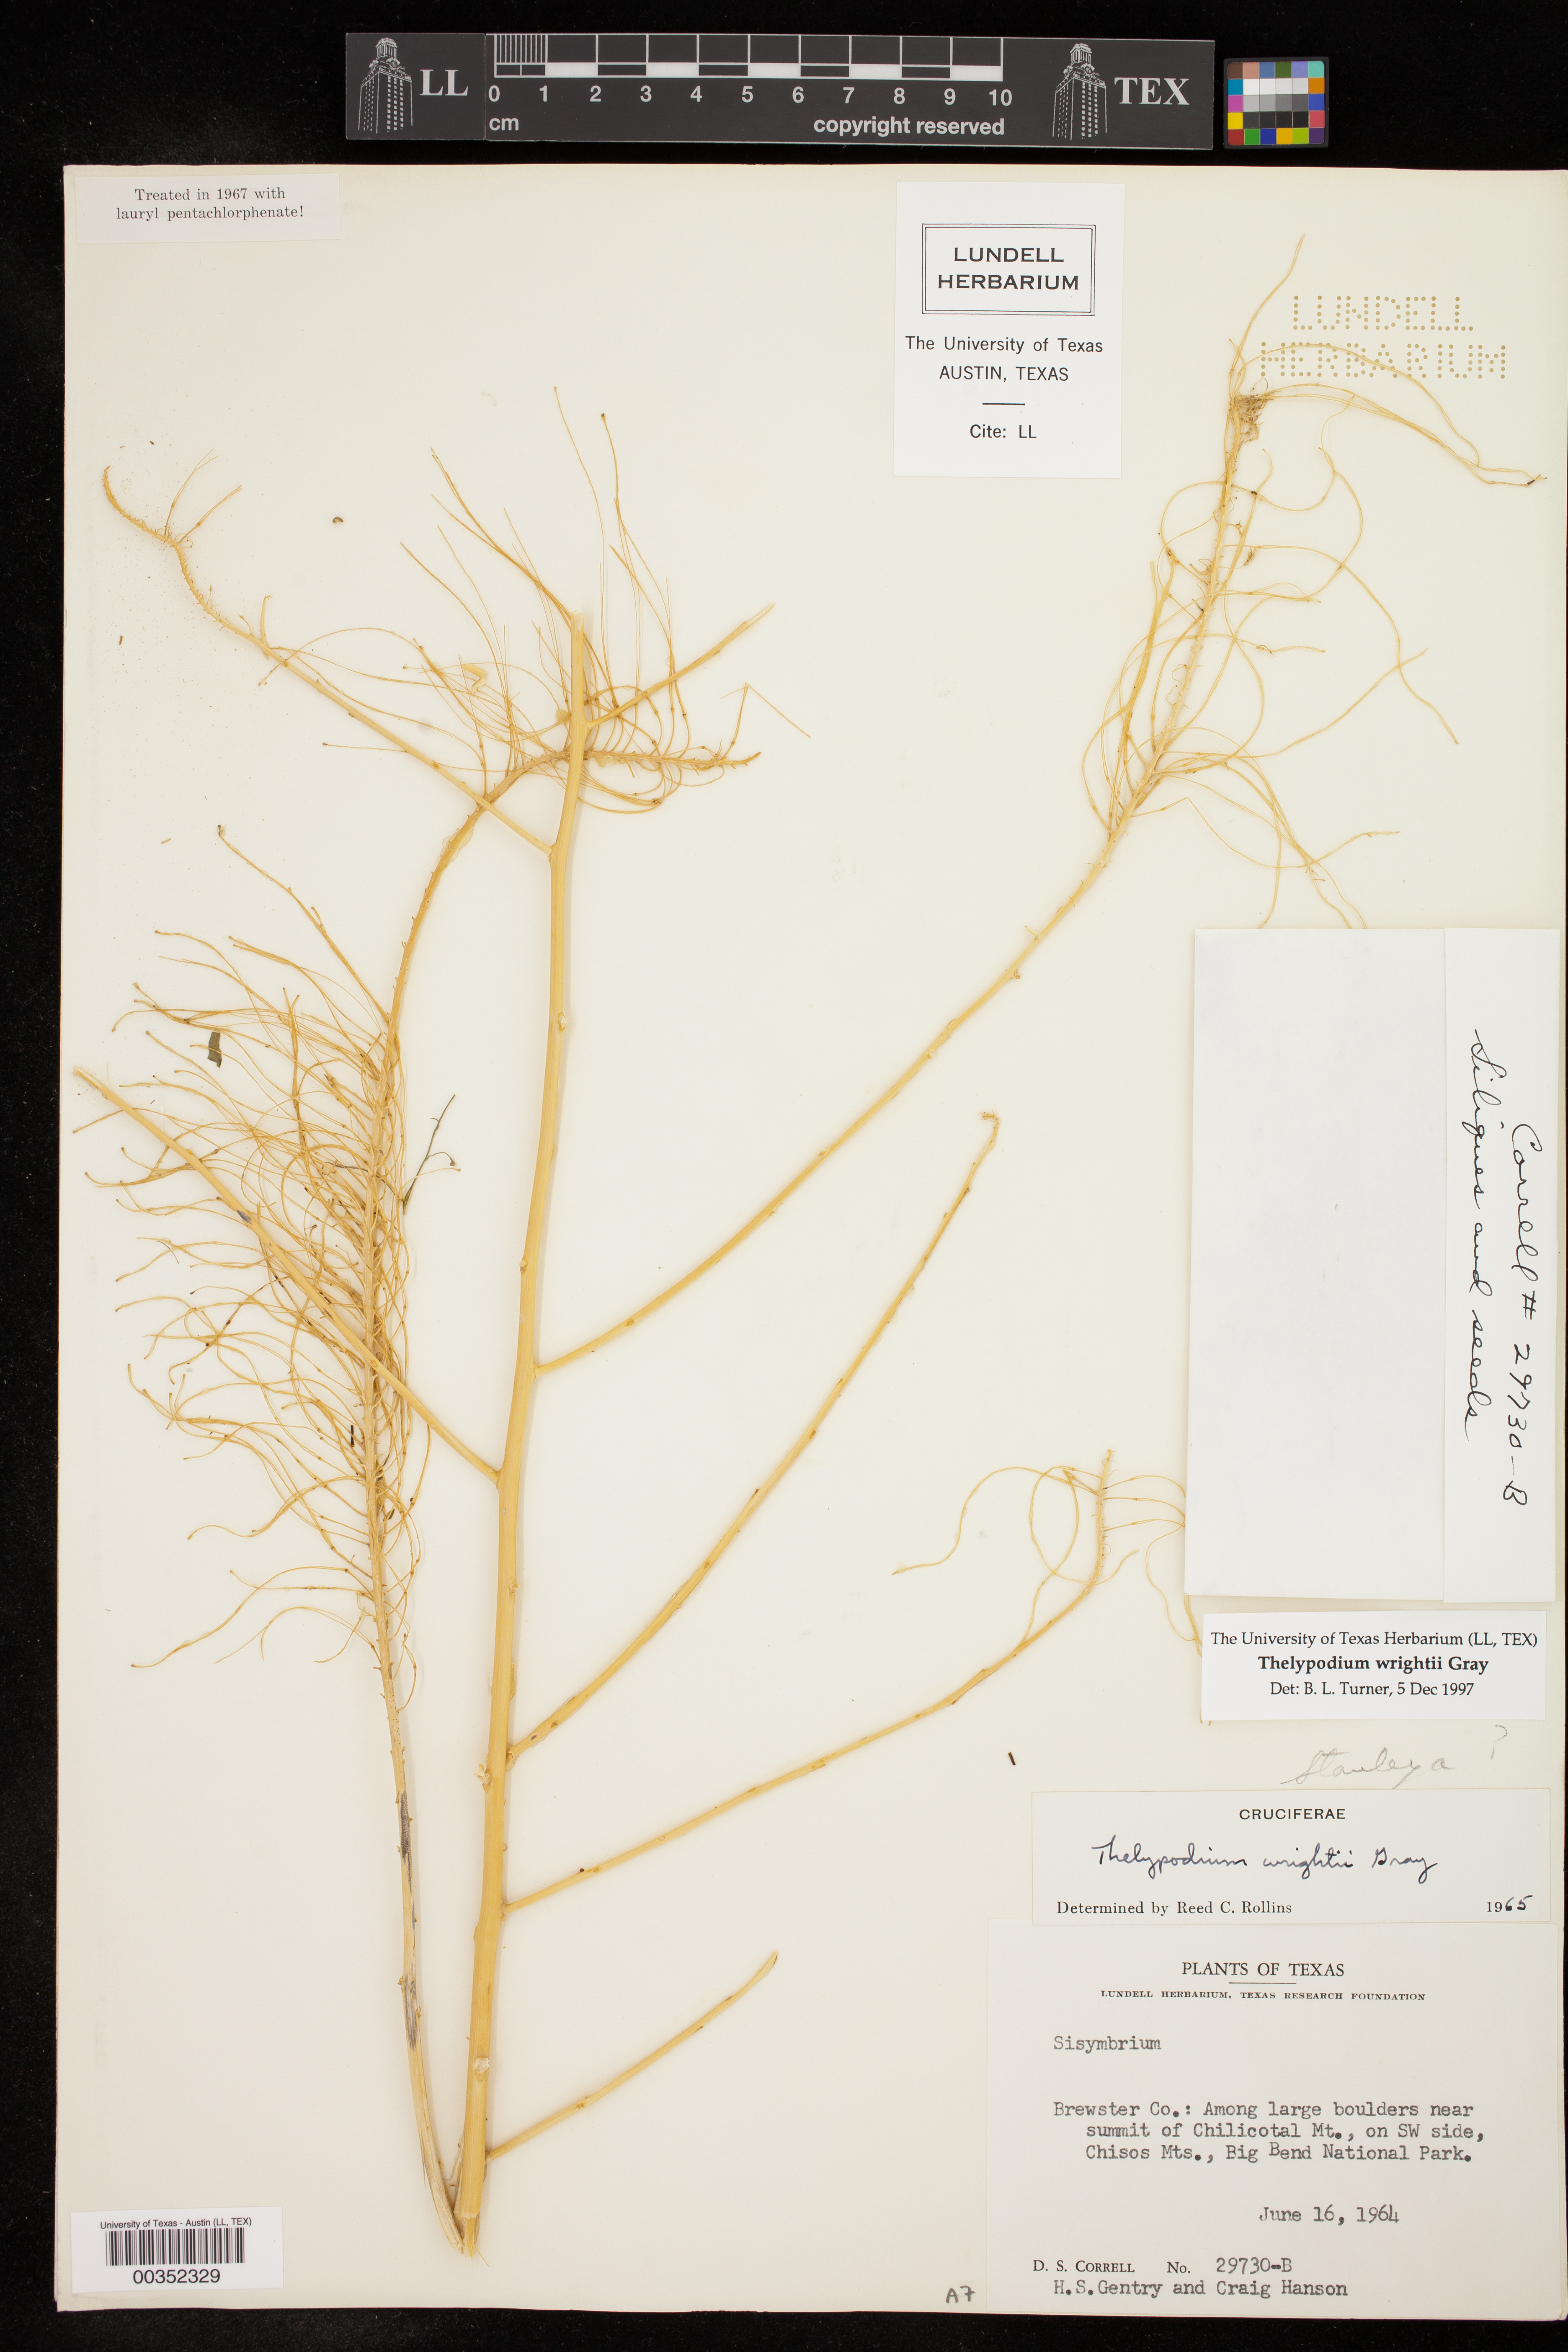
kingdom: Plantae
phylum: Tracheophyta
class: Magnoliopsida
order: Brassicales
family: Brassicaceae
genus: Thelypodium
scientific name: Thelypodium wrightii
